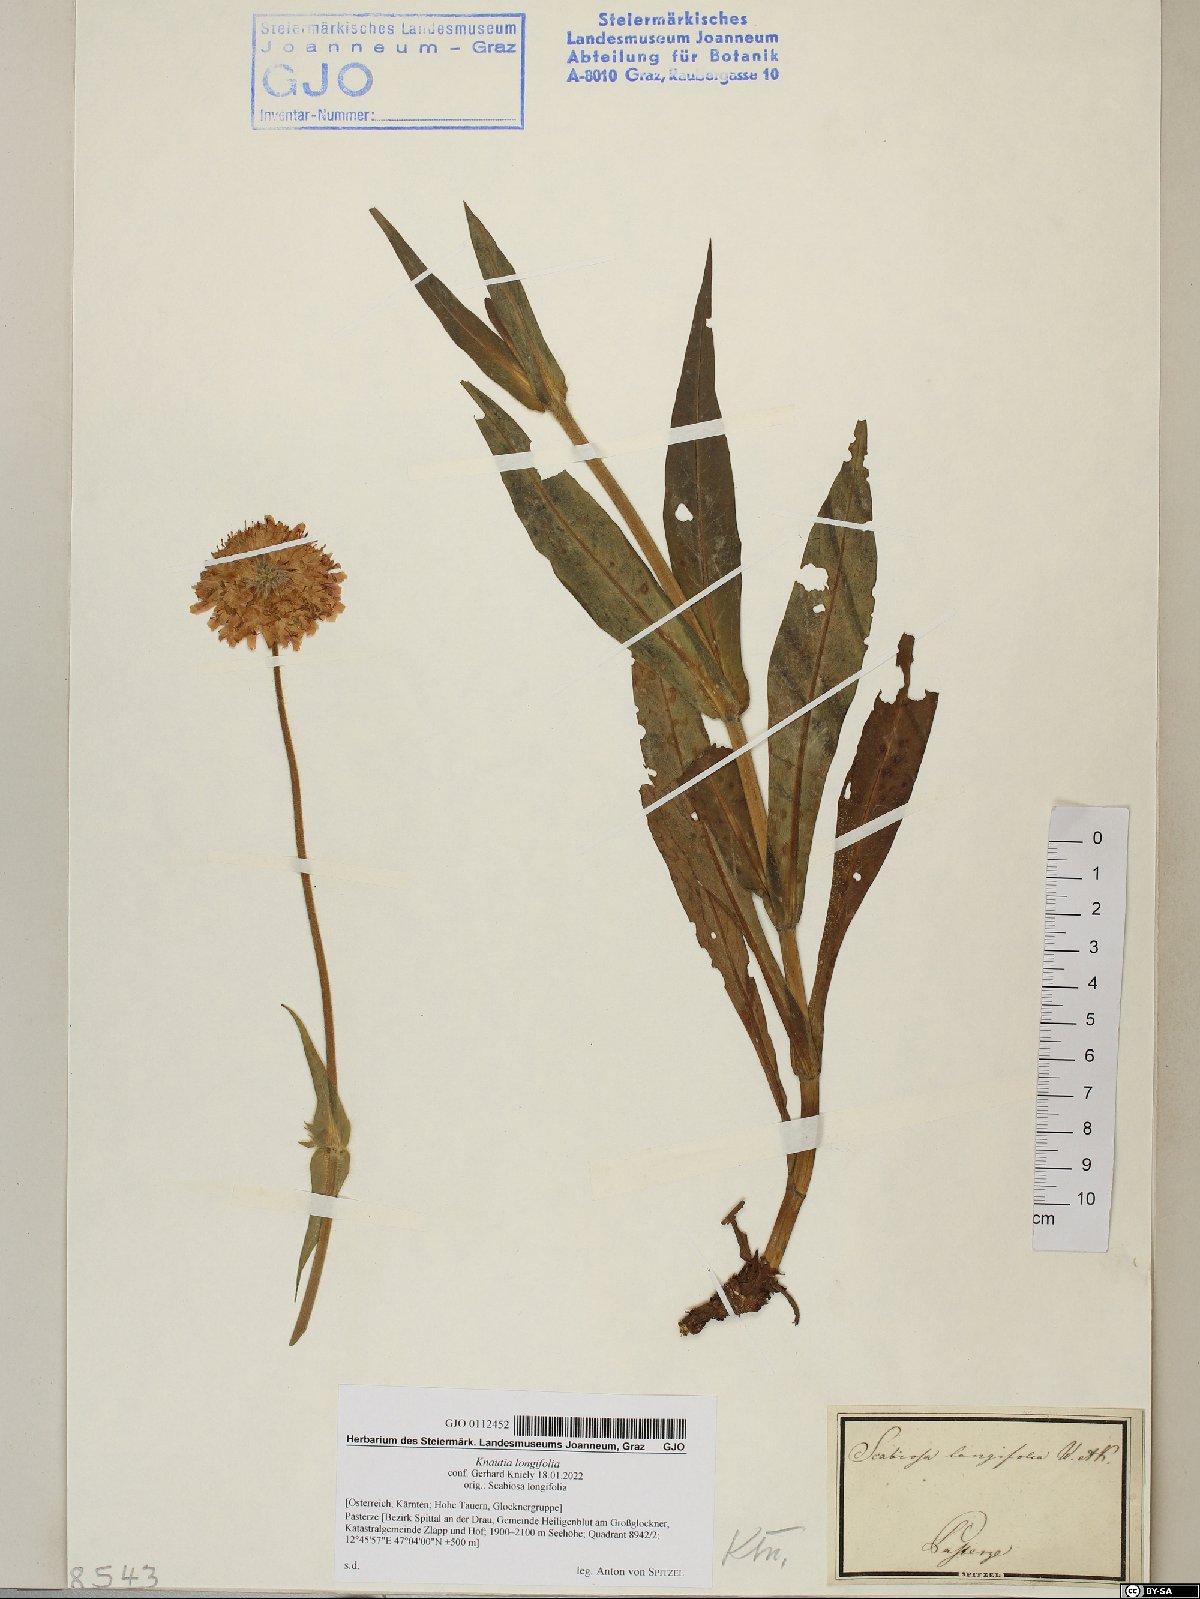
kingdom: Plantae
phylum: Tracheophyta
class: Magnoliopsida
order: Dipsacales
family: Caprifoliaceae
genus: Knautia
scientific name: Knautia longifolia
